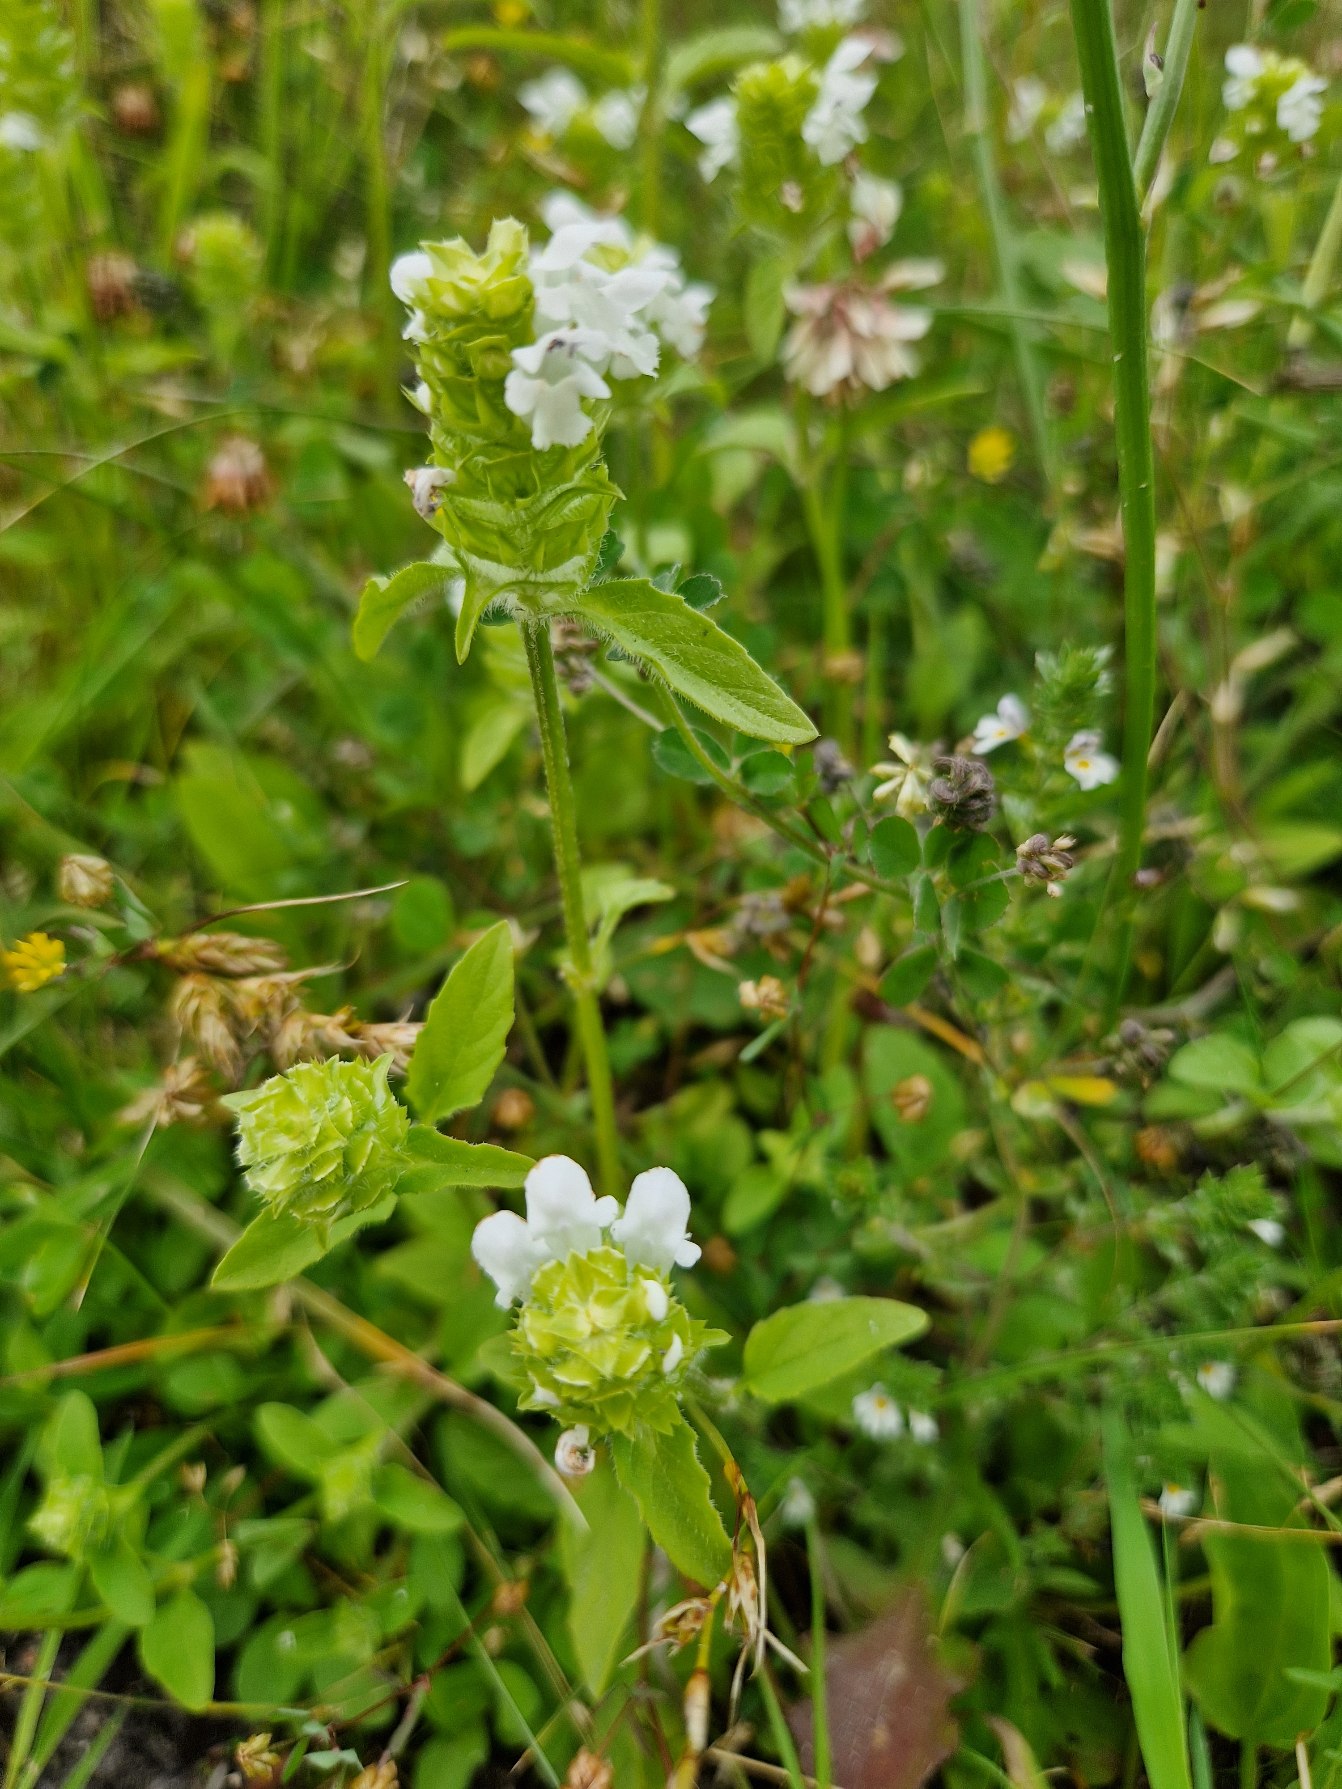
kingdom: Plantae
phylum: Tracheophyta
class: Magnoliopsida
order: Lamiales
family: Lamiaceae
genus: Prunella
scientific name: Prunella vulgaris
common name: Almindelig brunelle
